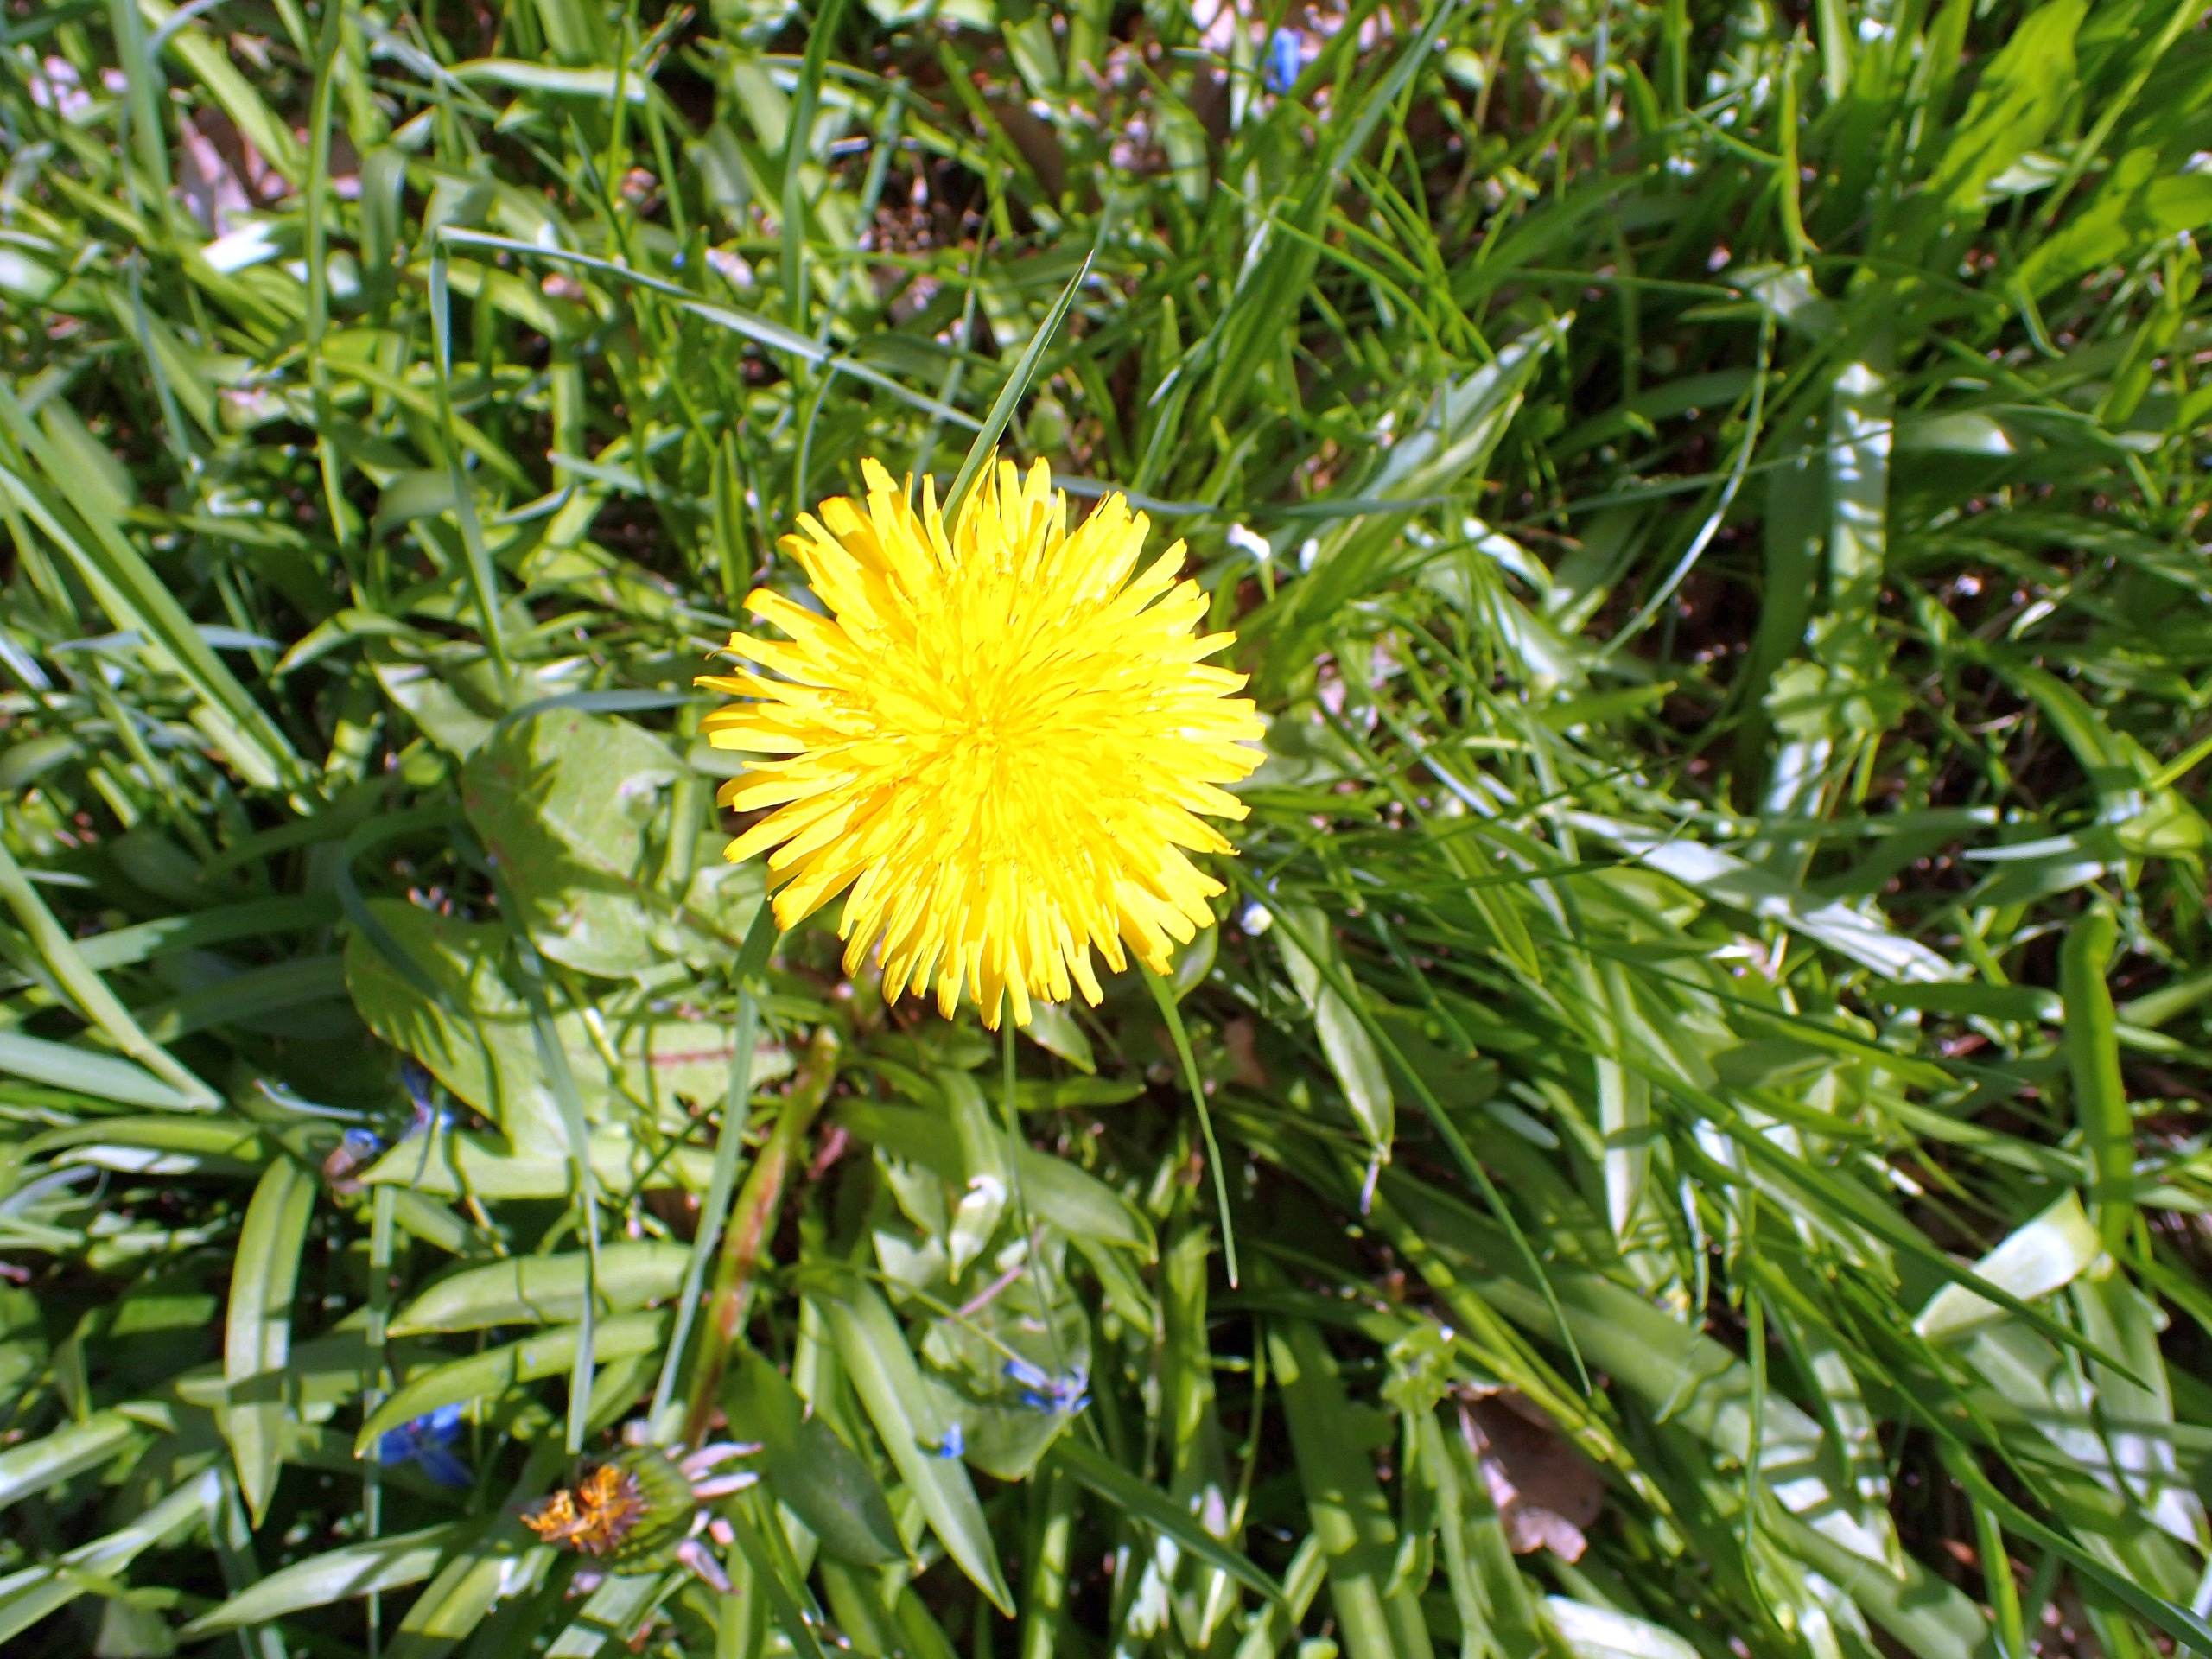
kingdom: Plantae
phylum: Tracheophyta
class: Magnoliopsida
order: Asterales
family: Asteraceae
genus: Taraxacum
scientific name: Taraxacum
